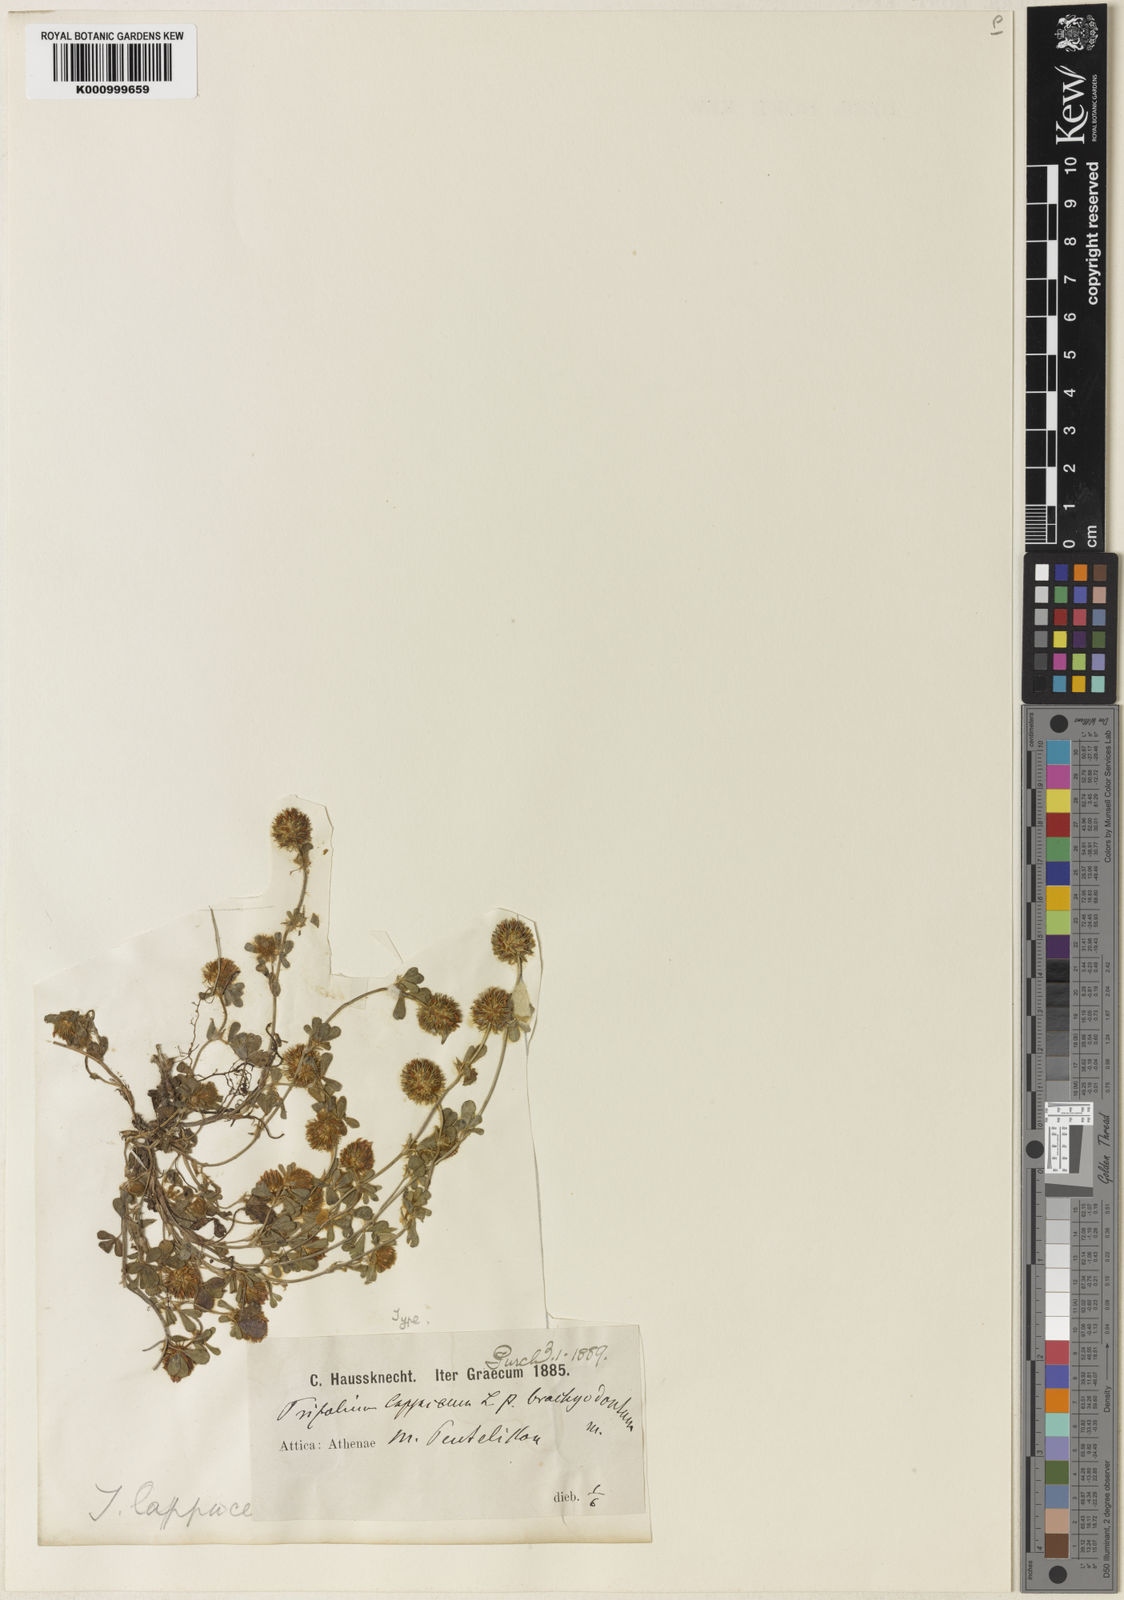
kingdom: Plantae
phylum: Tracheophyta
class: Magnoliopsida
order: Fabales
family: Fabaceae
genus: Trifolium
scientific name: Trifolium lappaceum
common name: Bur clover
